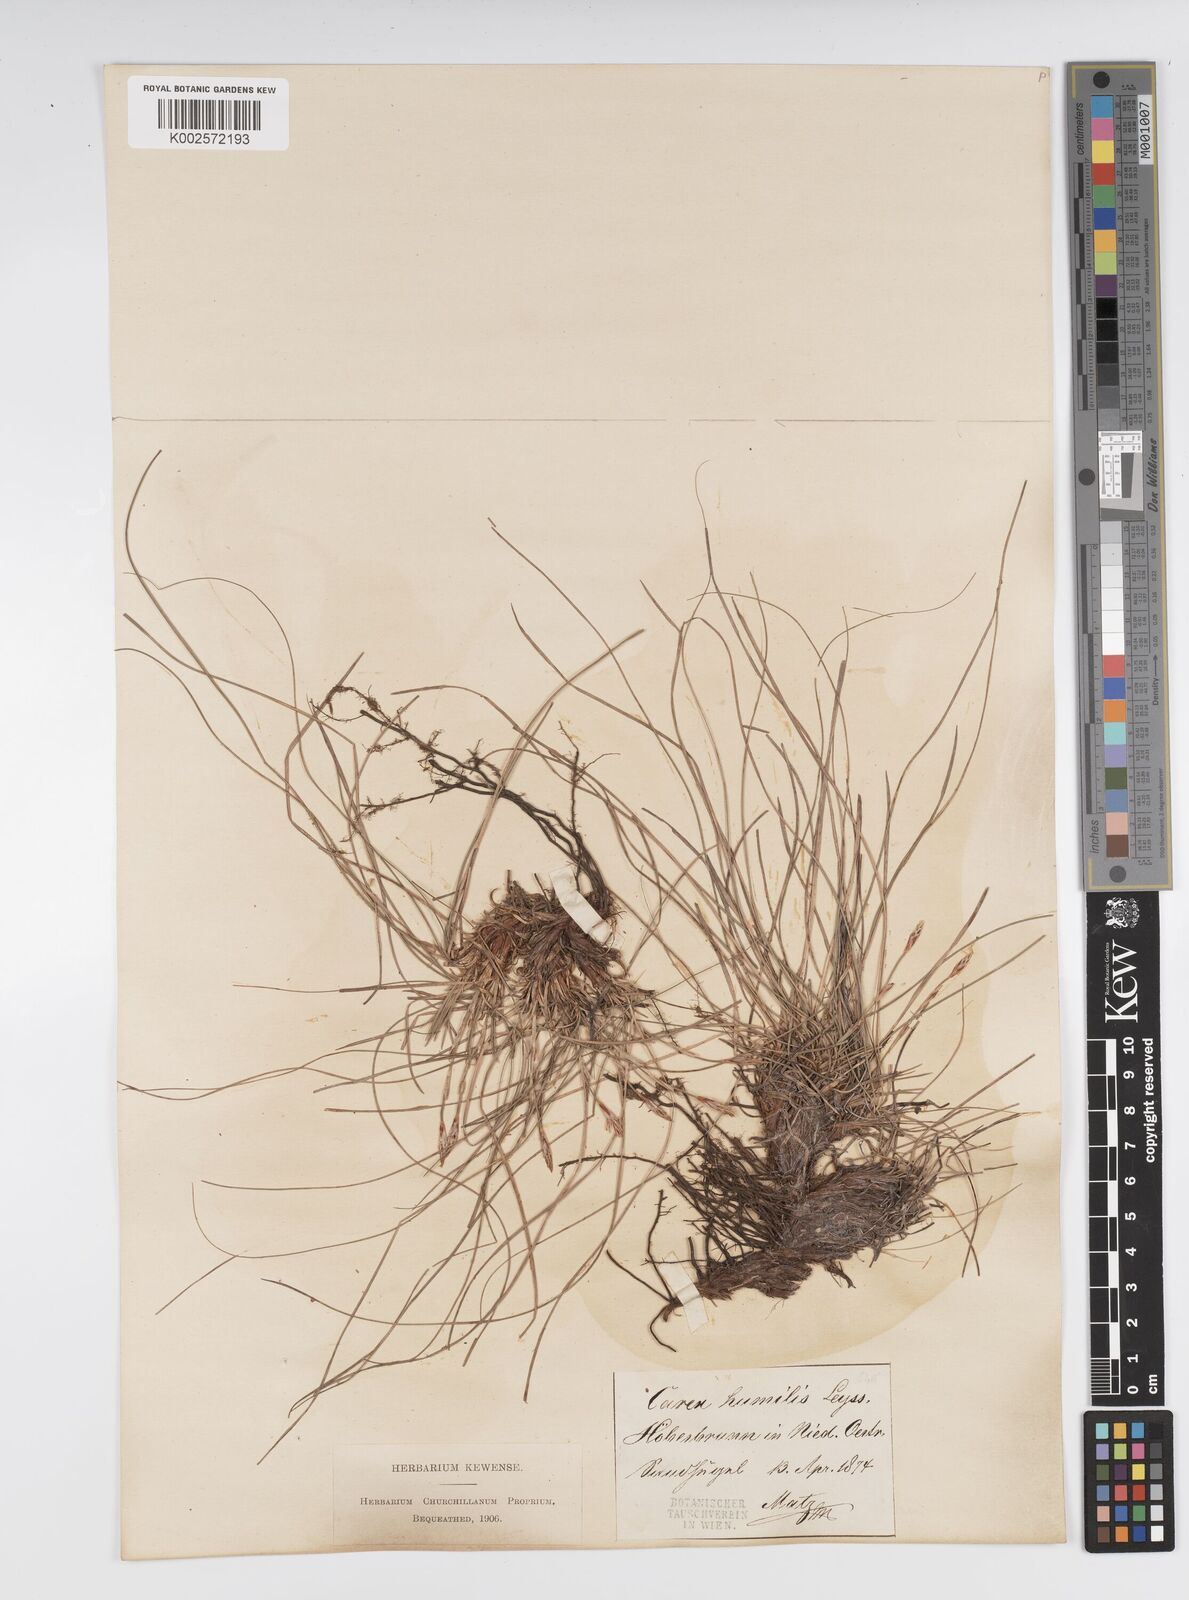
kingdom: Plantae
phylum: Tracheophyta
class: Liliopsida
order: Poales
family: Cyperaceae
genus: Carex
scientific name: Carex humilis
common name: Dwarf sedge
